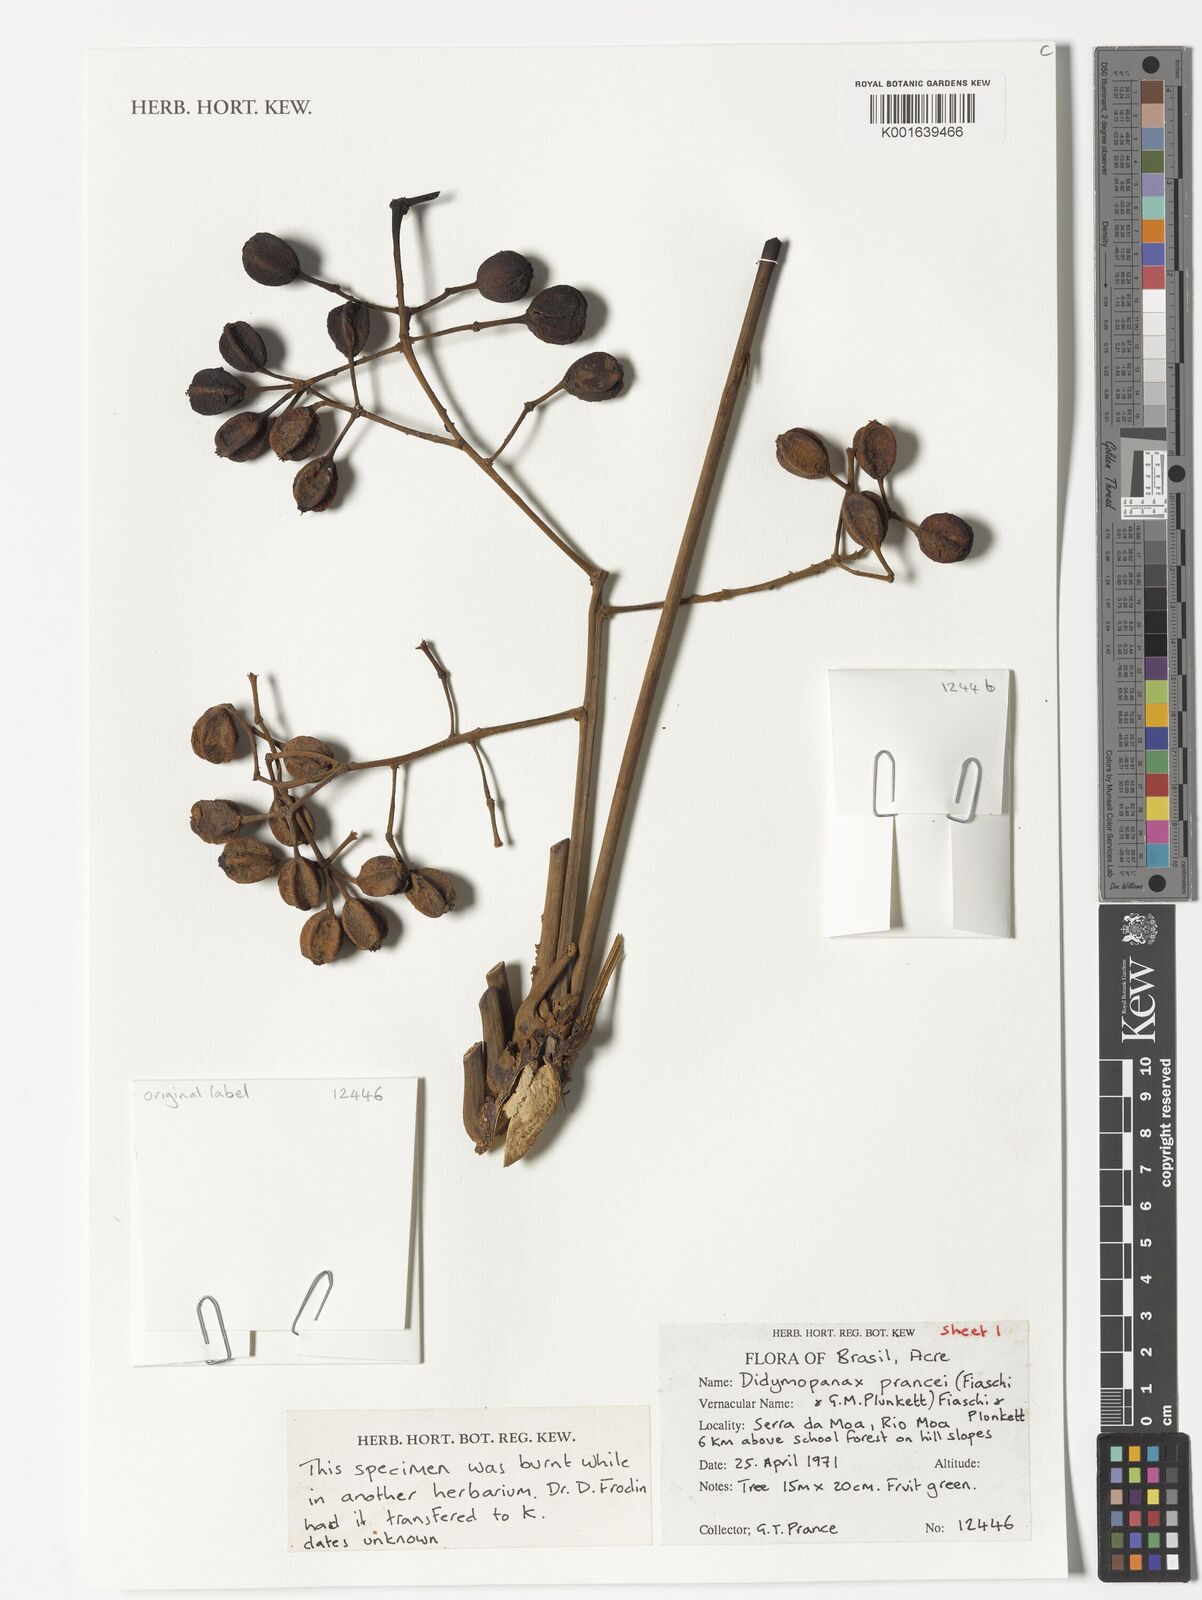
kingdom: Plantae
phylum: Tracheophyta
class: Magnoliopsida
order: Apiales
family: Araliaceae
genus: Didymopanax
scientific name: Didymopanax
